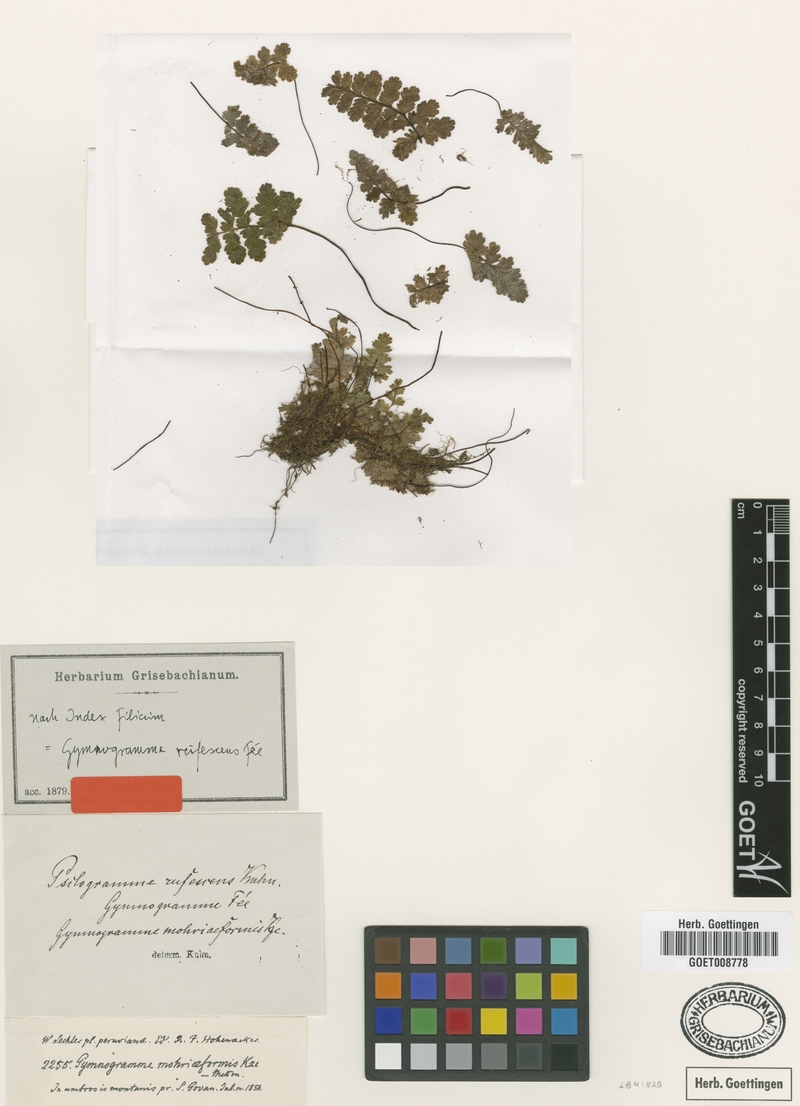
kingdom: Plantae
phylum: Tracheophyta
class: Polypodiopsida
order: Polypodiales
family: Pteridaceae
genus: Jamesonia
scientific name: Jamesonia rufescens
